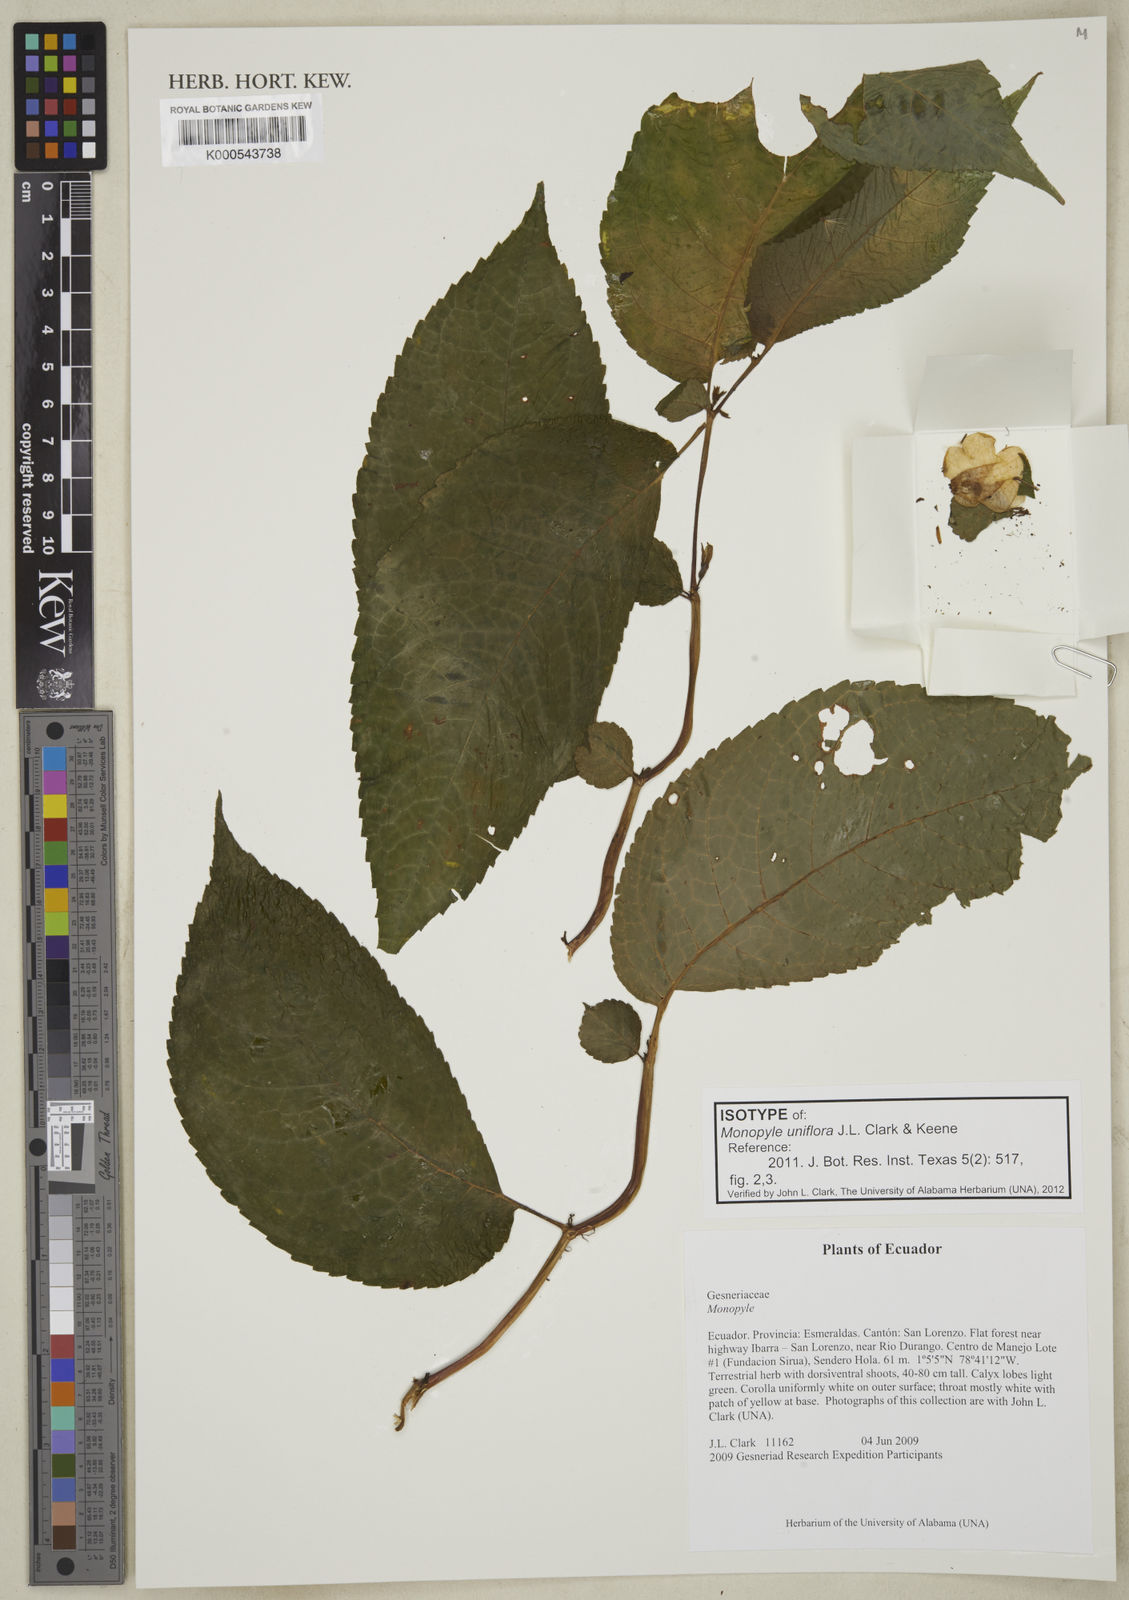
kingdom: Plantae
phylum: Tracheophyta
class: Magnoliopsida
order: Lamiales
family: Gesneriaceae
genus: Monopyle
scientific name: Monopyle uniflora
